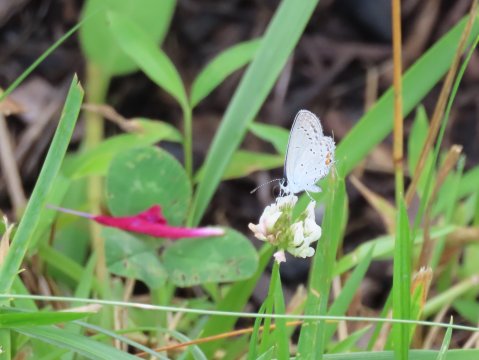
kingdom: Animalia
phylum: Arthropoda
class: Insecta
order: Lepidoptera
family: Lycaenidae
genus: Elkalyce
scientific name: Elkalyce comyntas
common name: Eastern Tailed-Blue
